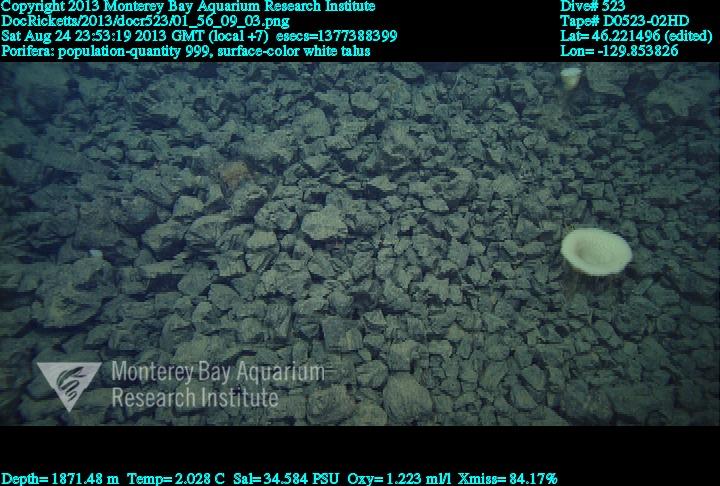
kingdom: Animalia
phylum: Porifera
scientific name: Porifera
